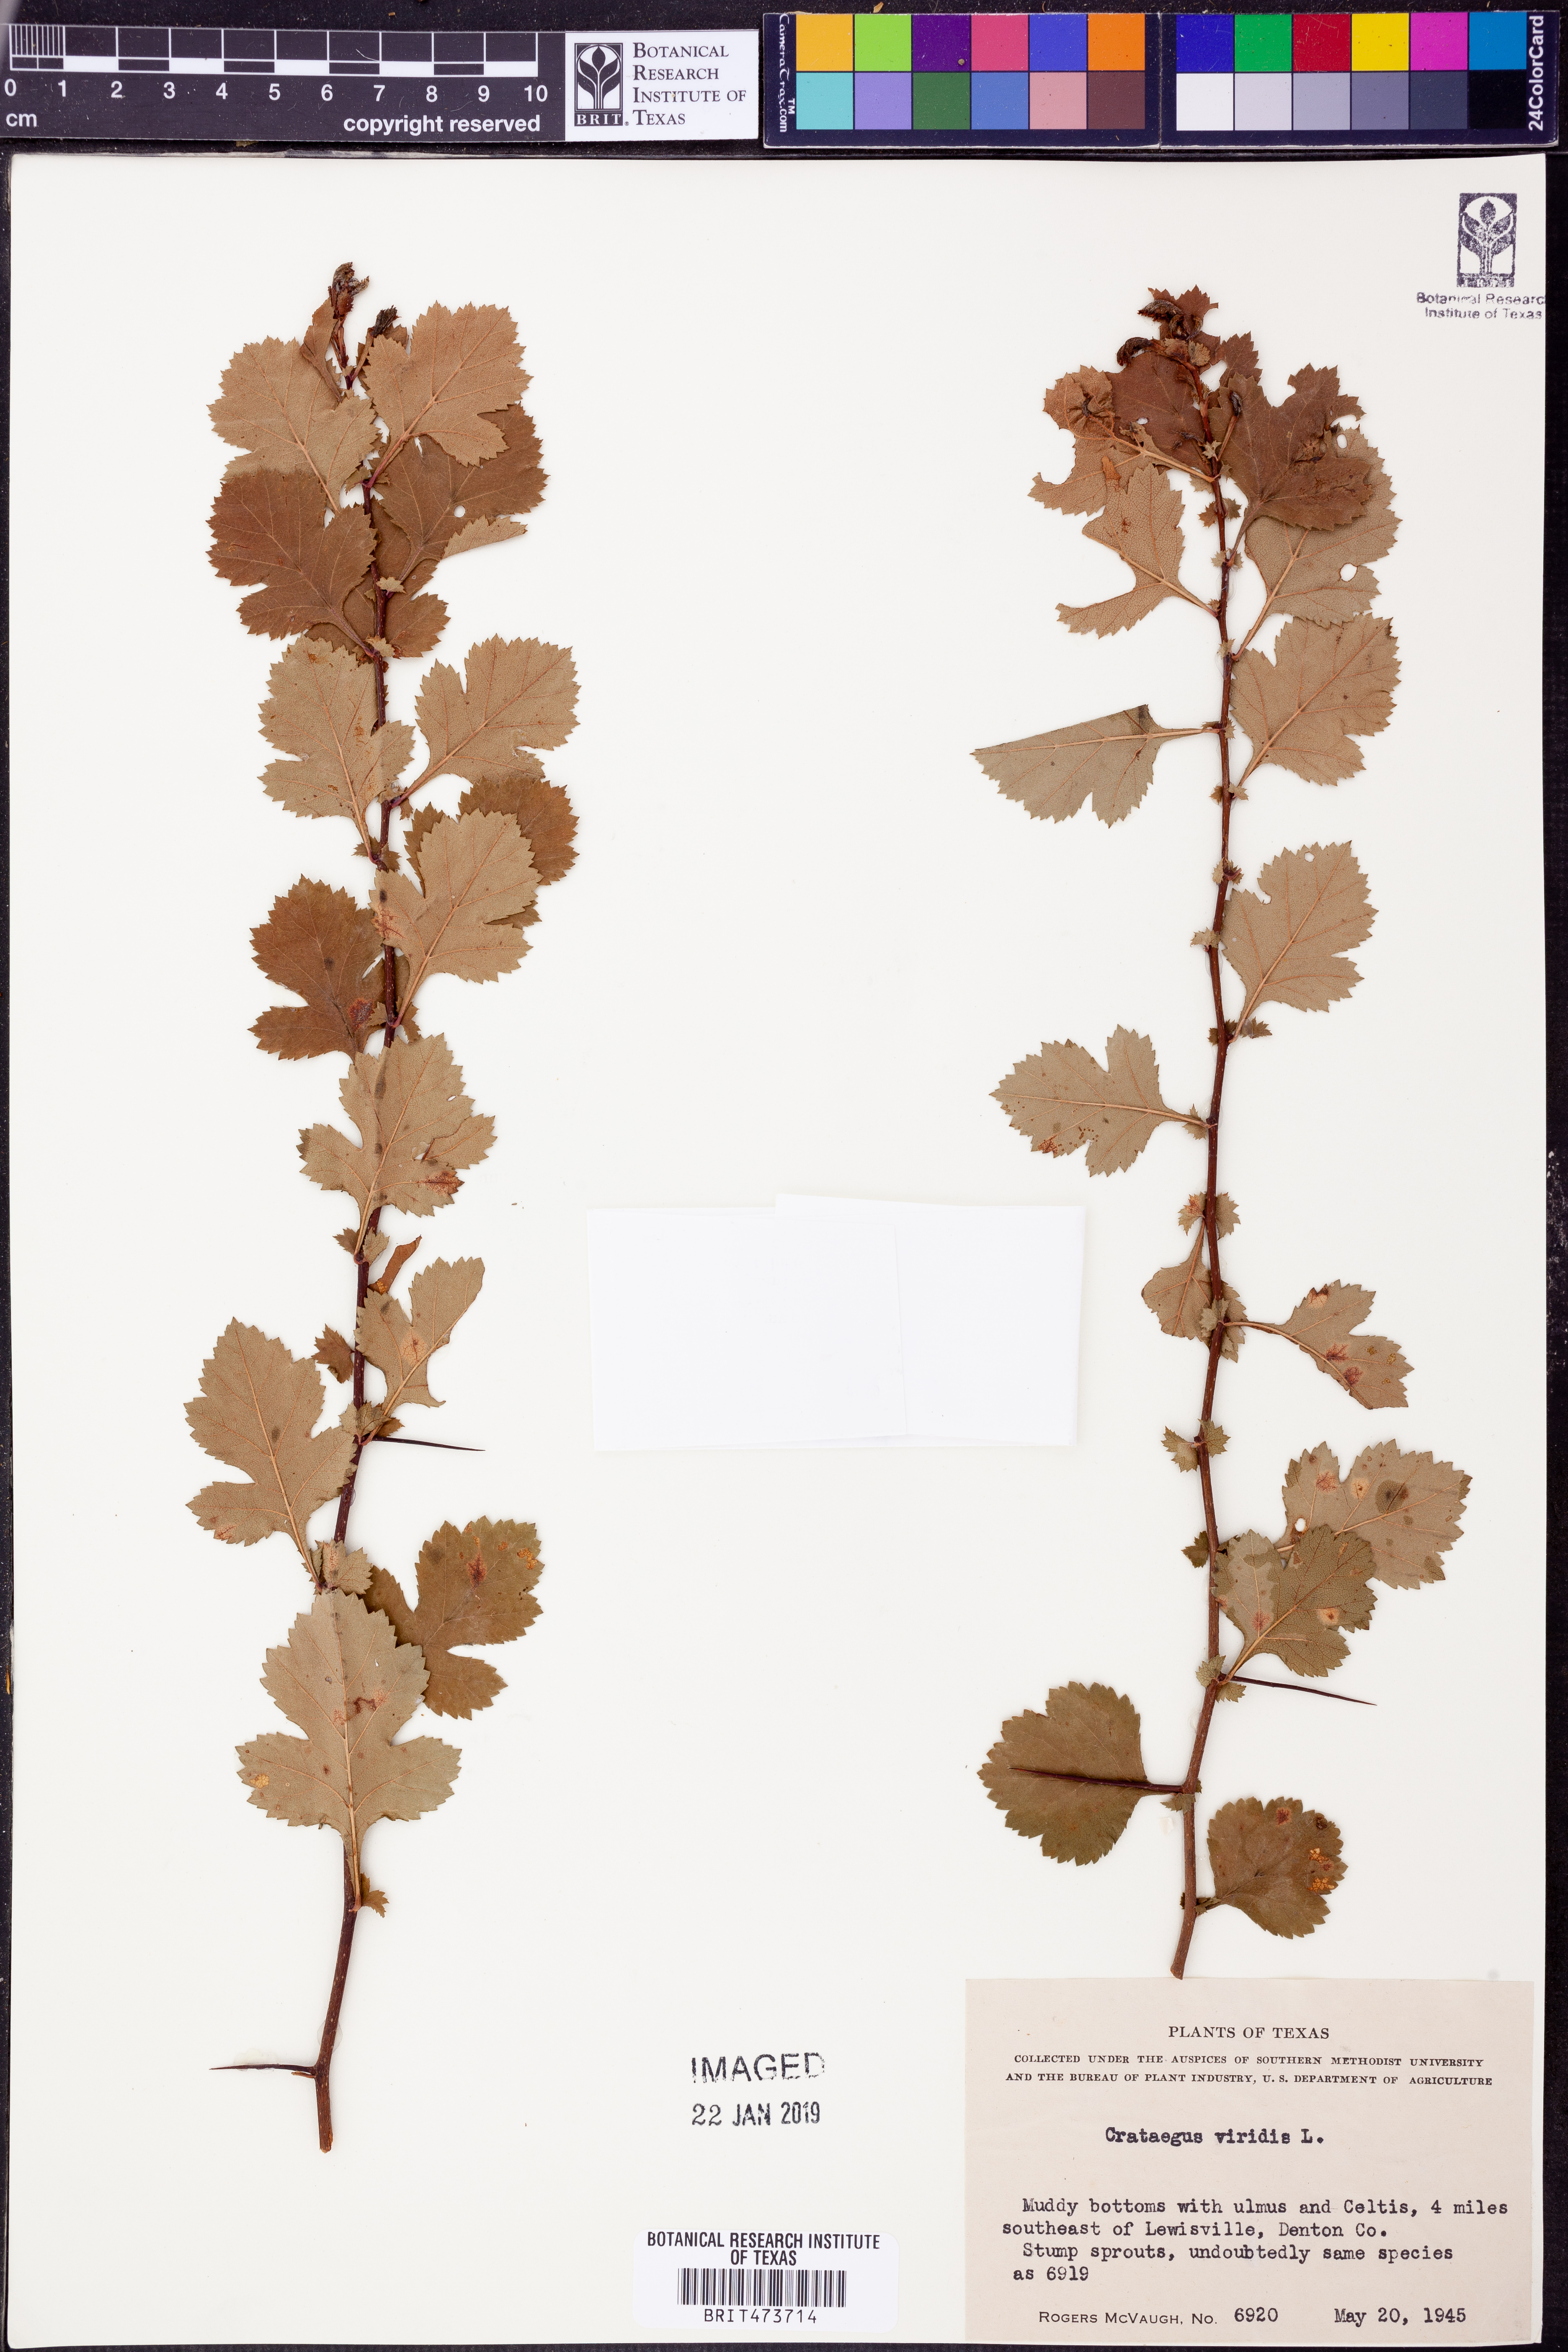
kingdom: Plantae
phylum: Tracheophyta
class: Magnoliopsida
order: Rosales
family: Rosaceae
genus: Crataegus
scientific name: Crataegus viridis
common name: Southernthorn
